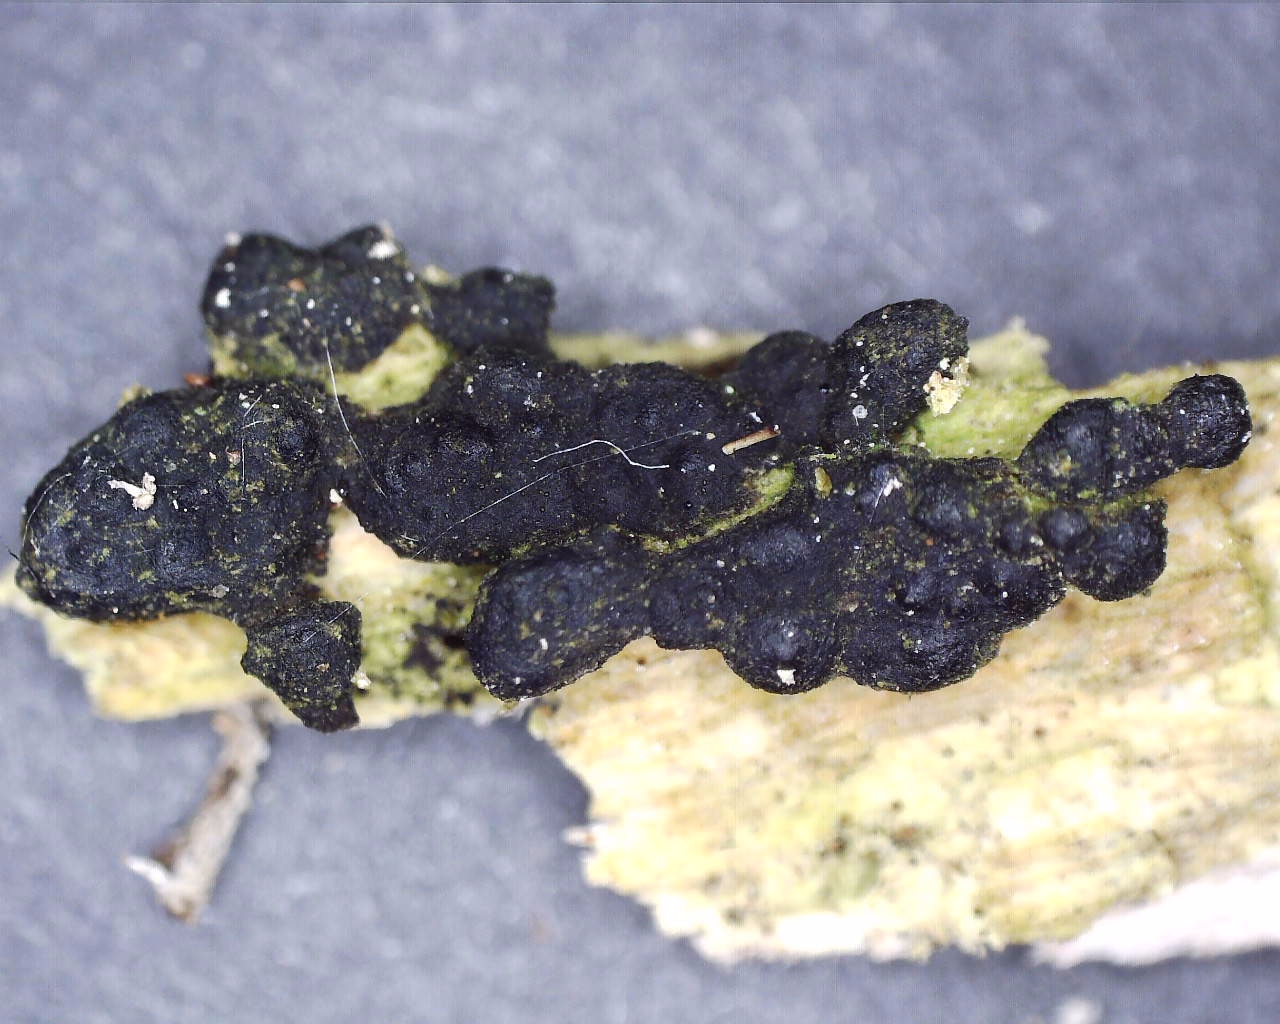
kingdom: Fungi
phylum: Ascomycota
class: Sordariomycetes
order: Xylariales
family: Xylariaceae
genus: Nemania
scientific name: Nemania confluens
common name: indsænket kuldyne
